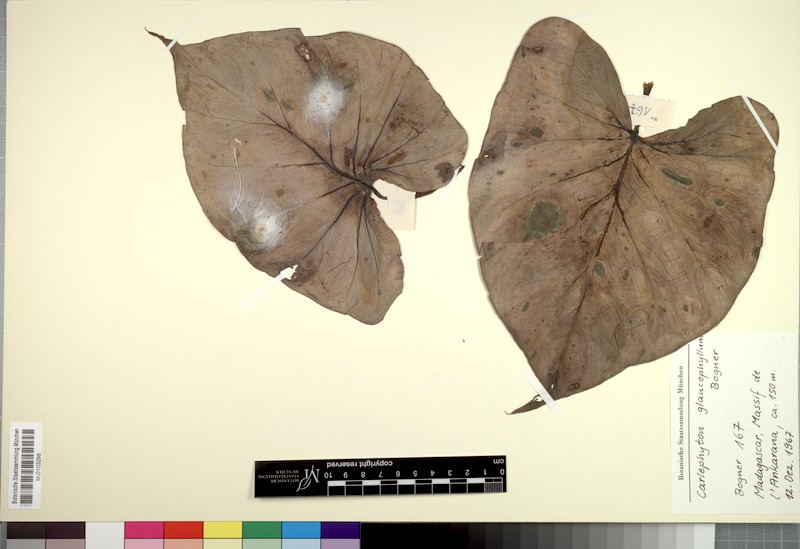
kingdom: Plantae
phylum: Tracheophyta
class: Liliopsida
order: Alismatales
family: Araceae
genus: Carlephyton
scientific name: Carlephyton glaucophyllum
